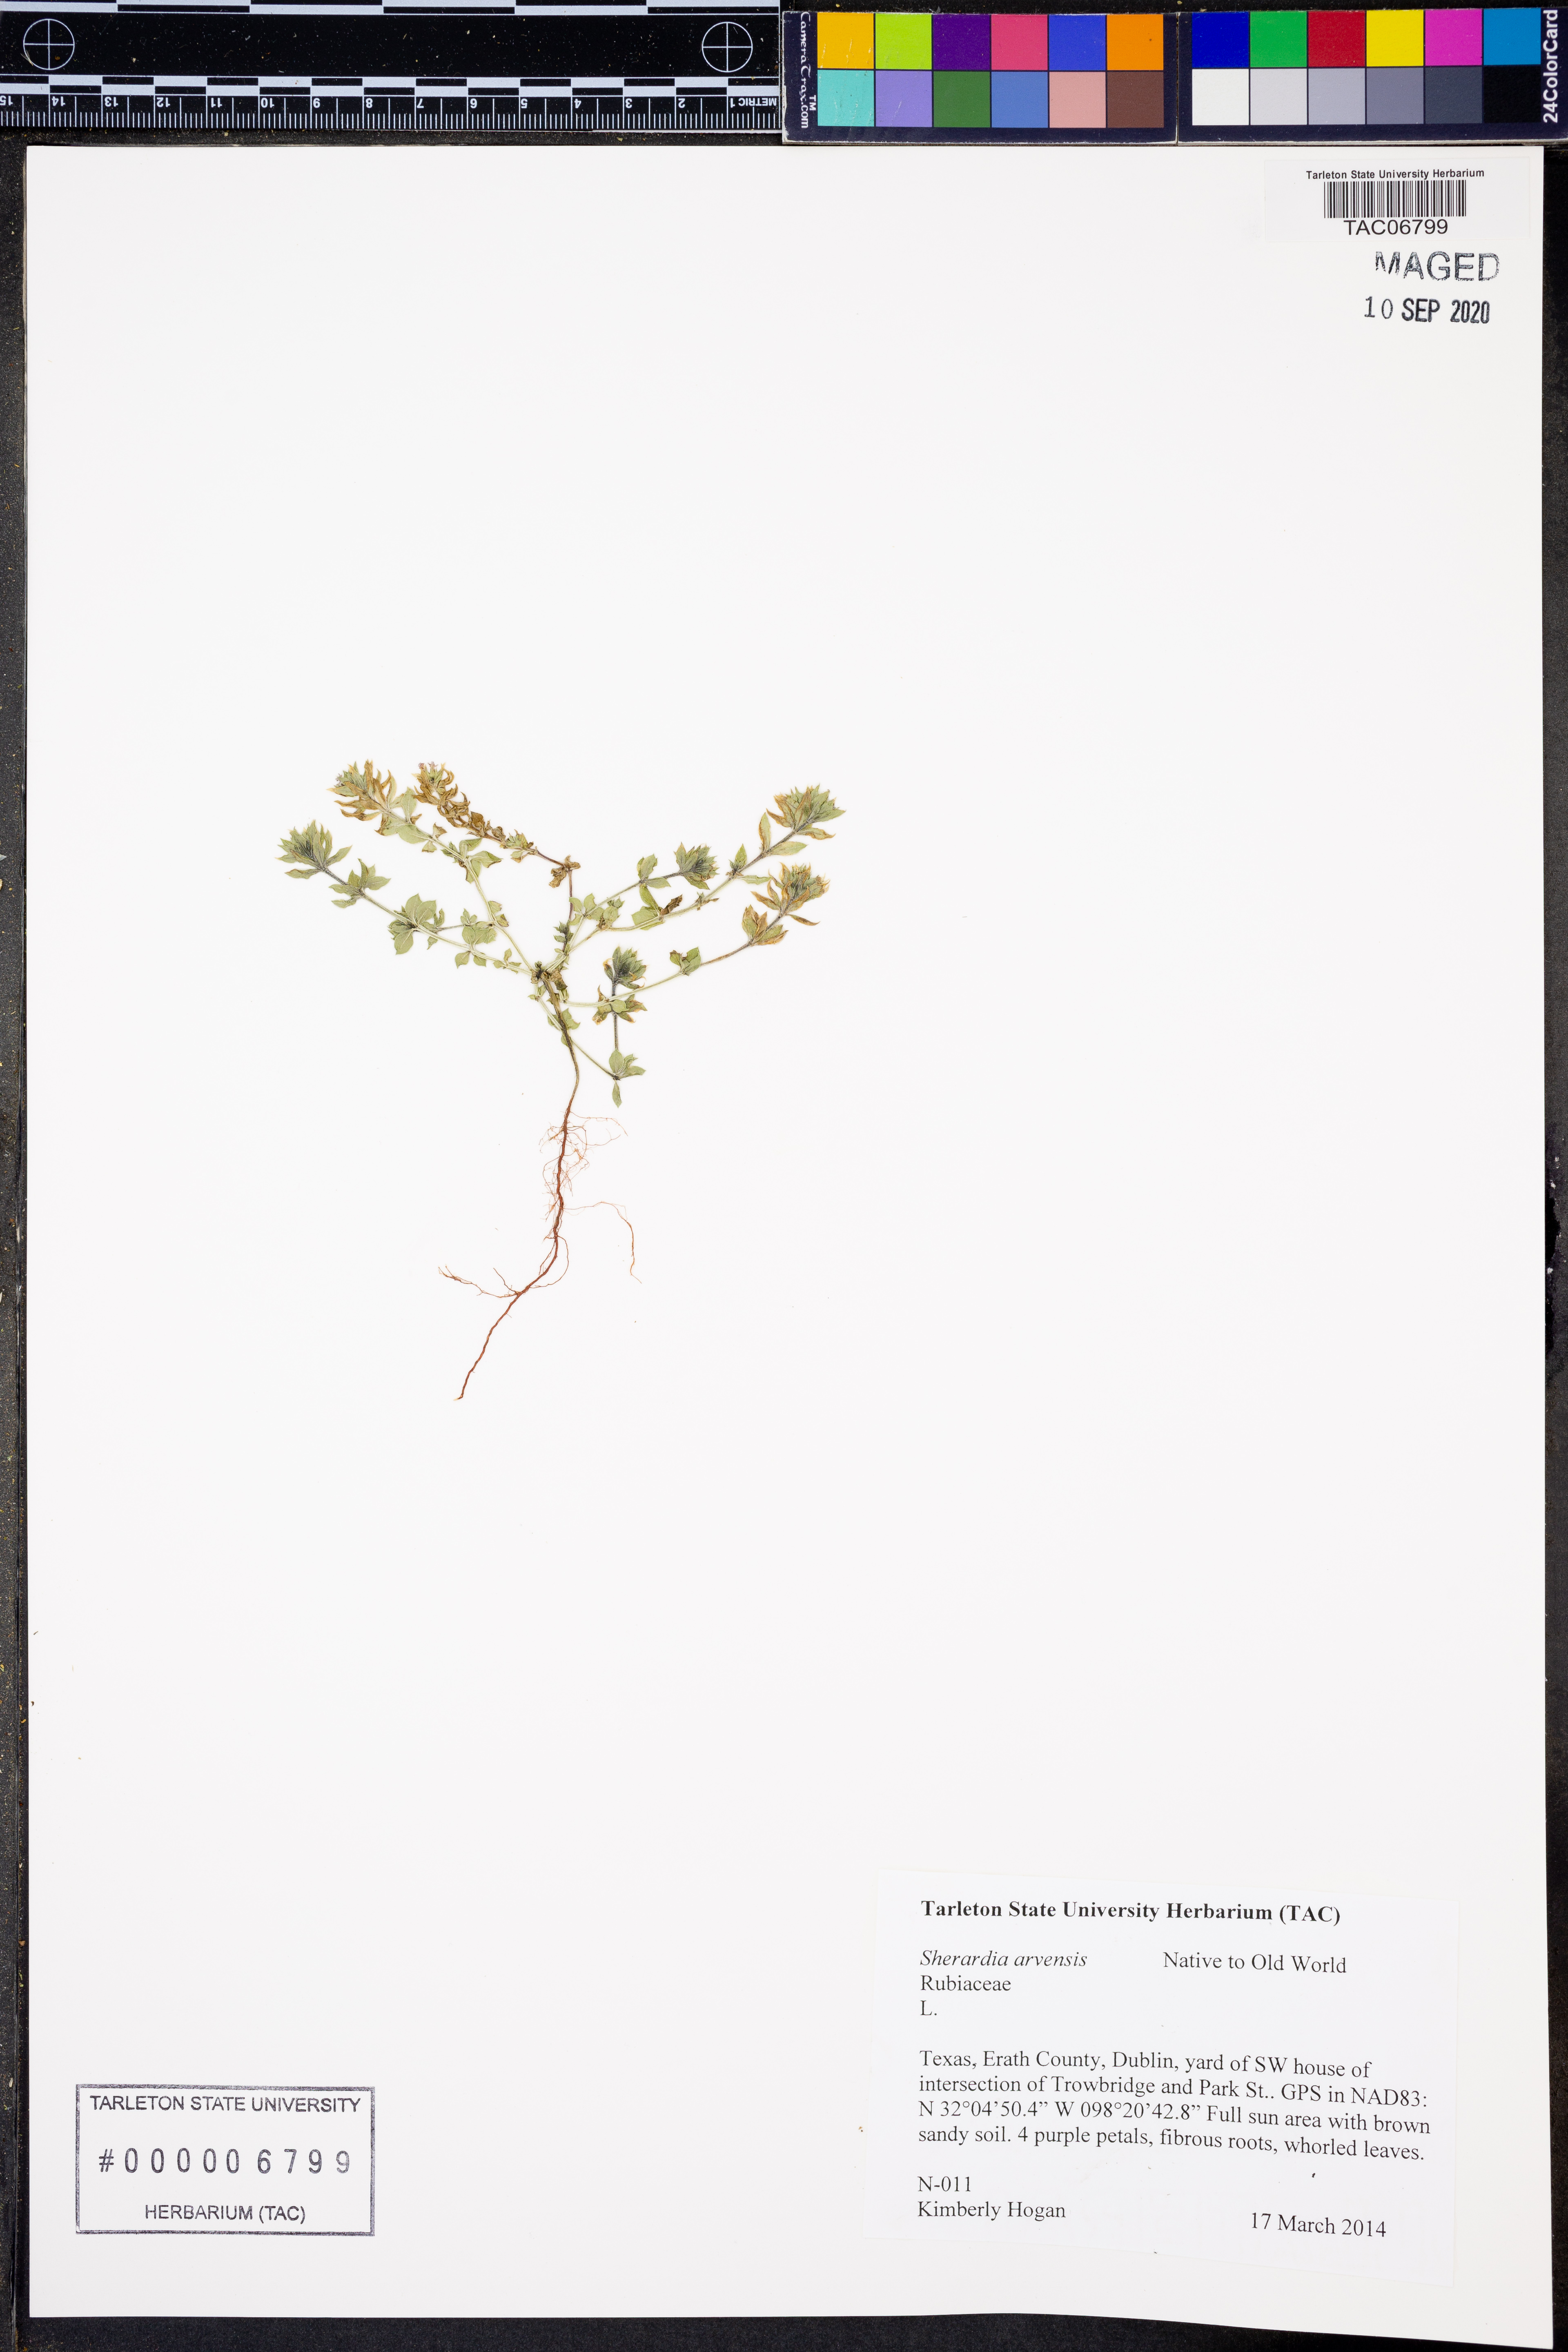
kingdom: Plantae
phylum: Tracheophyta
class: Magnoliopsida
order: Gentianales
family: Rubiaceae
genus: Sherardia
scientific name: Sherardia arvensis
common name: Field madder
